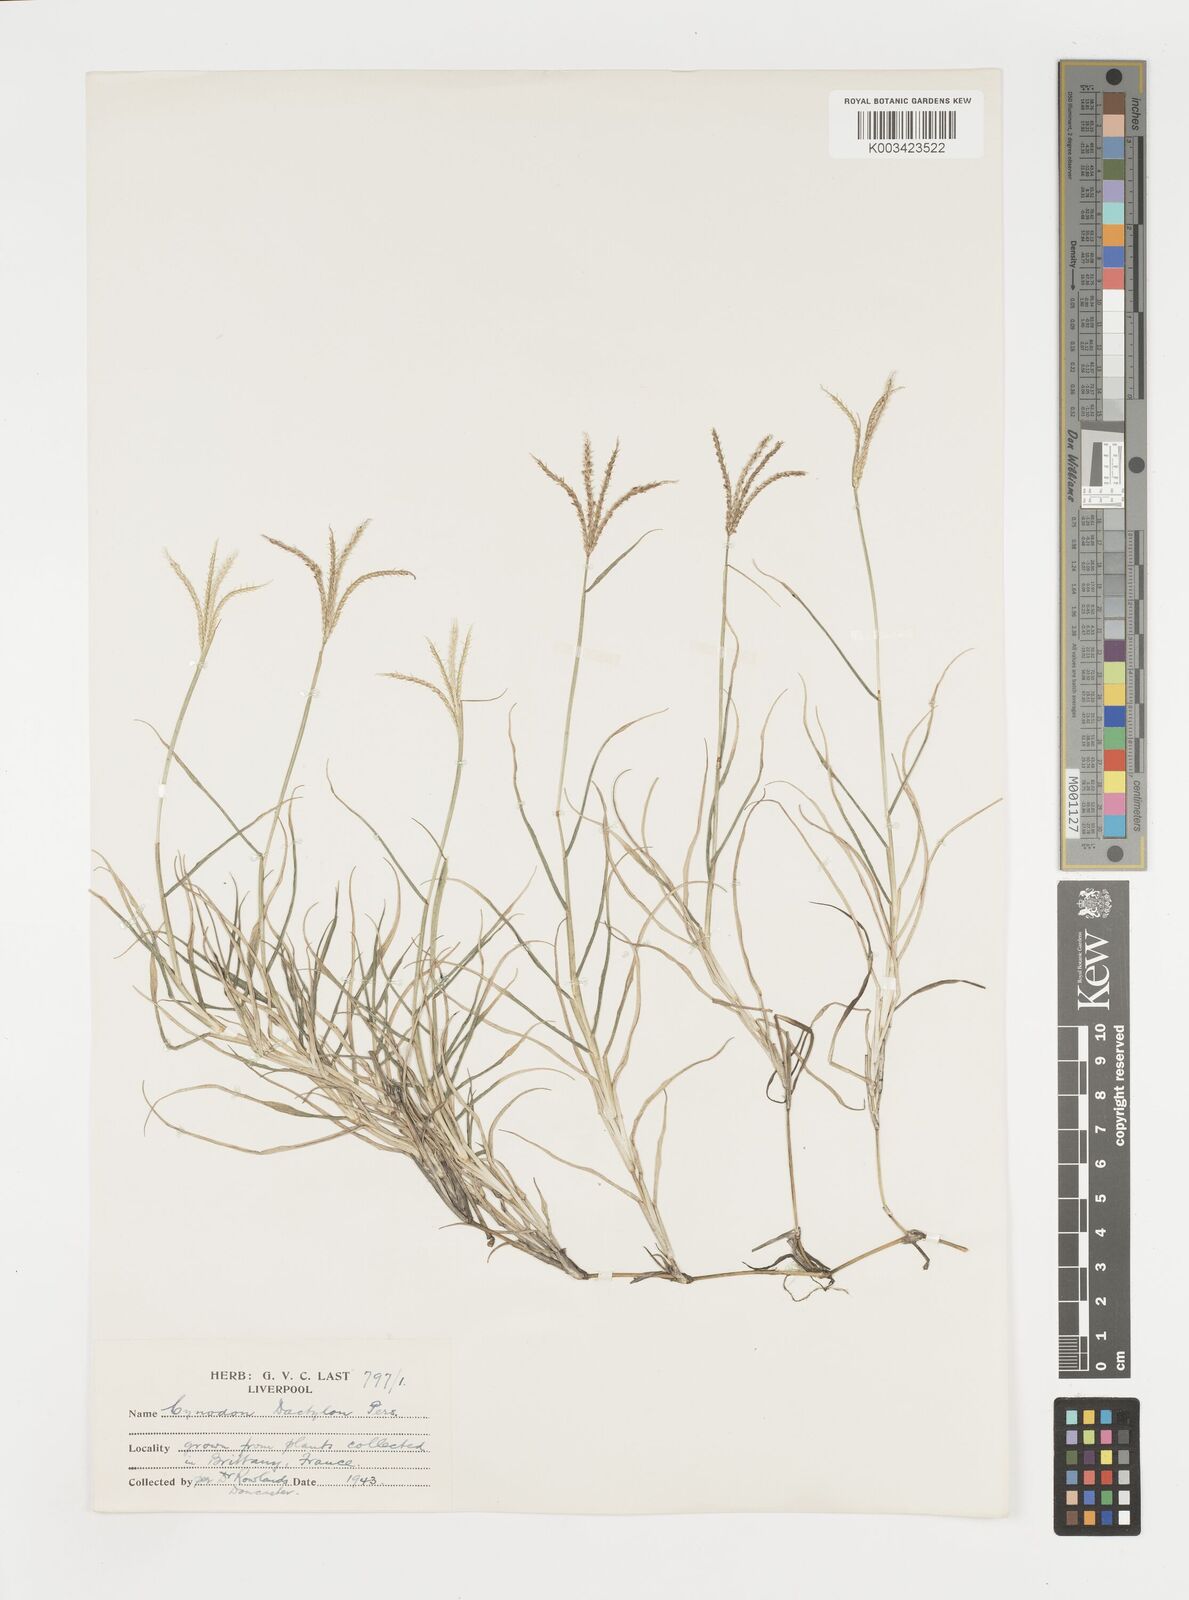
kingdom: Plantae
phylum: Tracheophyta
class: Liliopsida
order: Poales
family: Poaceae
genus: Cynodon
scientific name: Cynodon dactylon
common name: Bermuda grass
